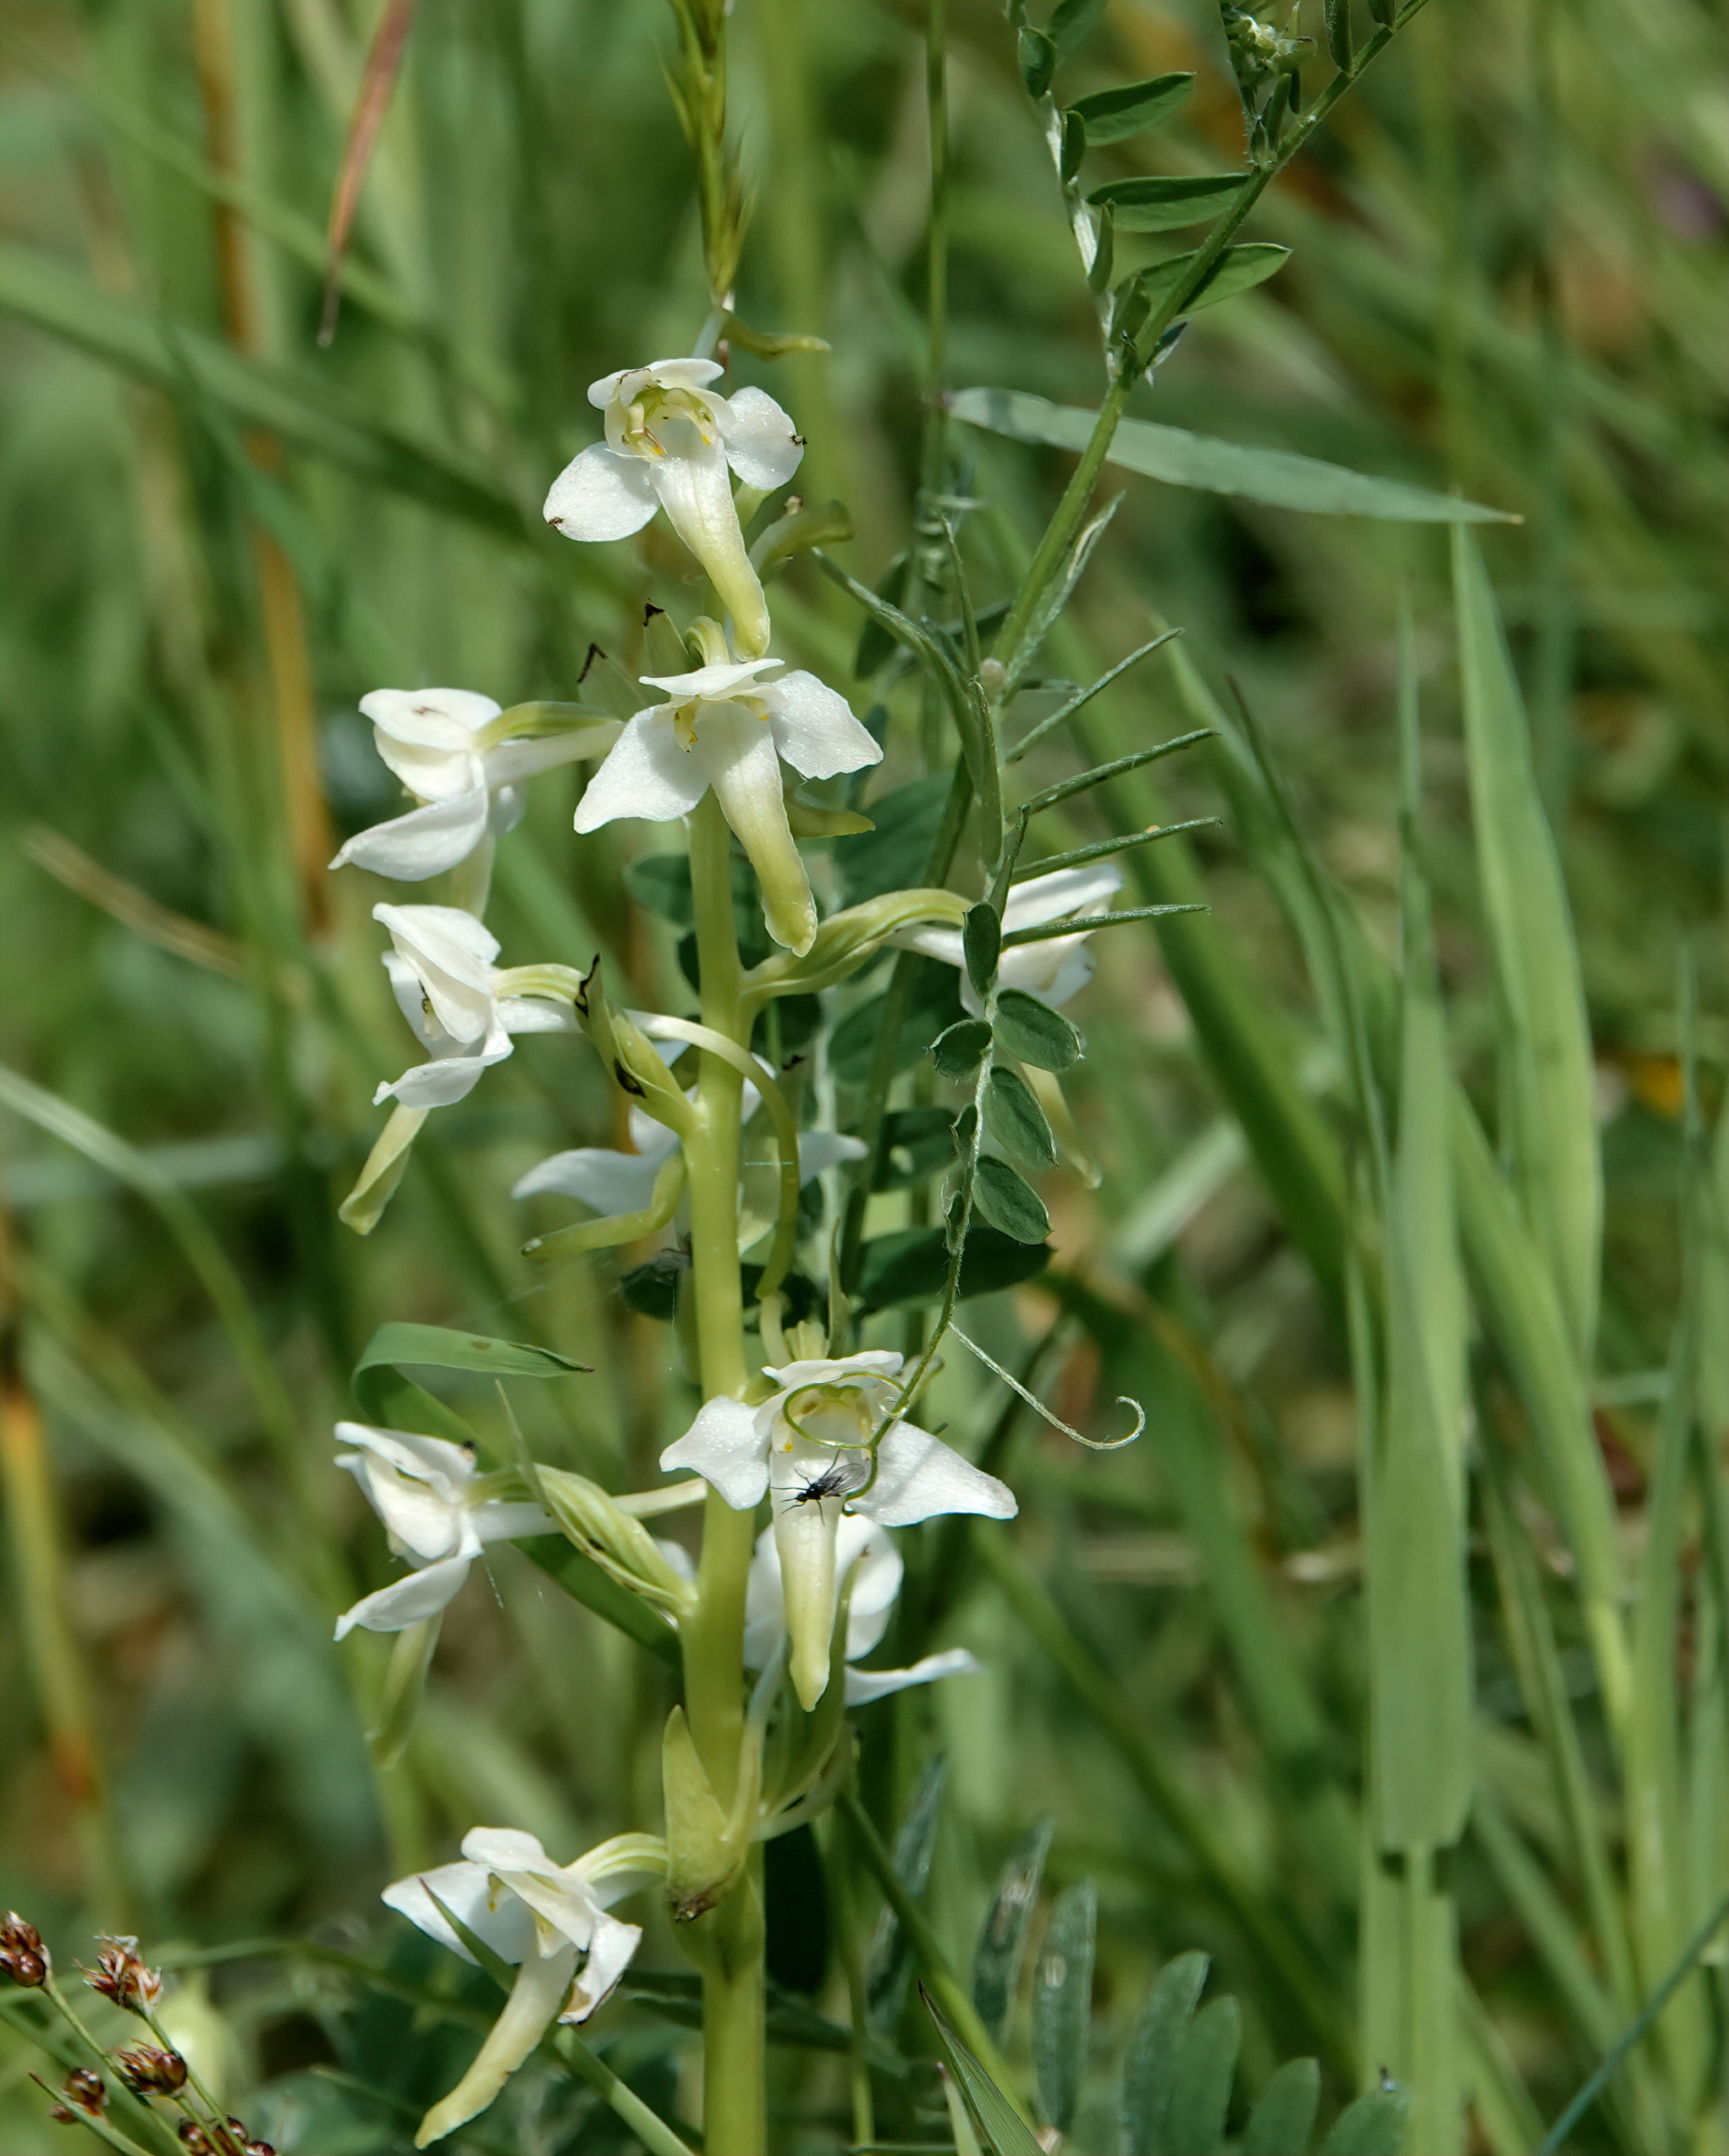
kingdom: Plantae
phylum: Tracheophyta
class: Liliopsida
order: Asparagales
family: Orchidaceae
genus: Platanthera
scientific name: Platanthera chlorantha
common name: Skov-gøgelilje
